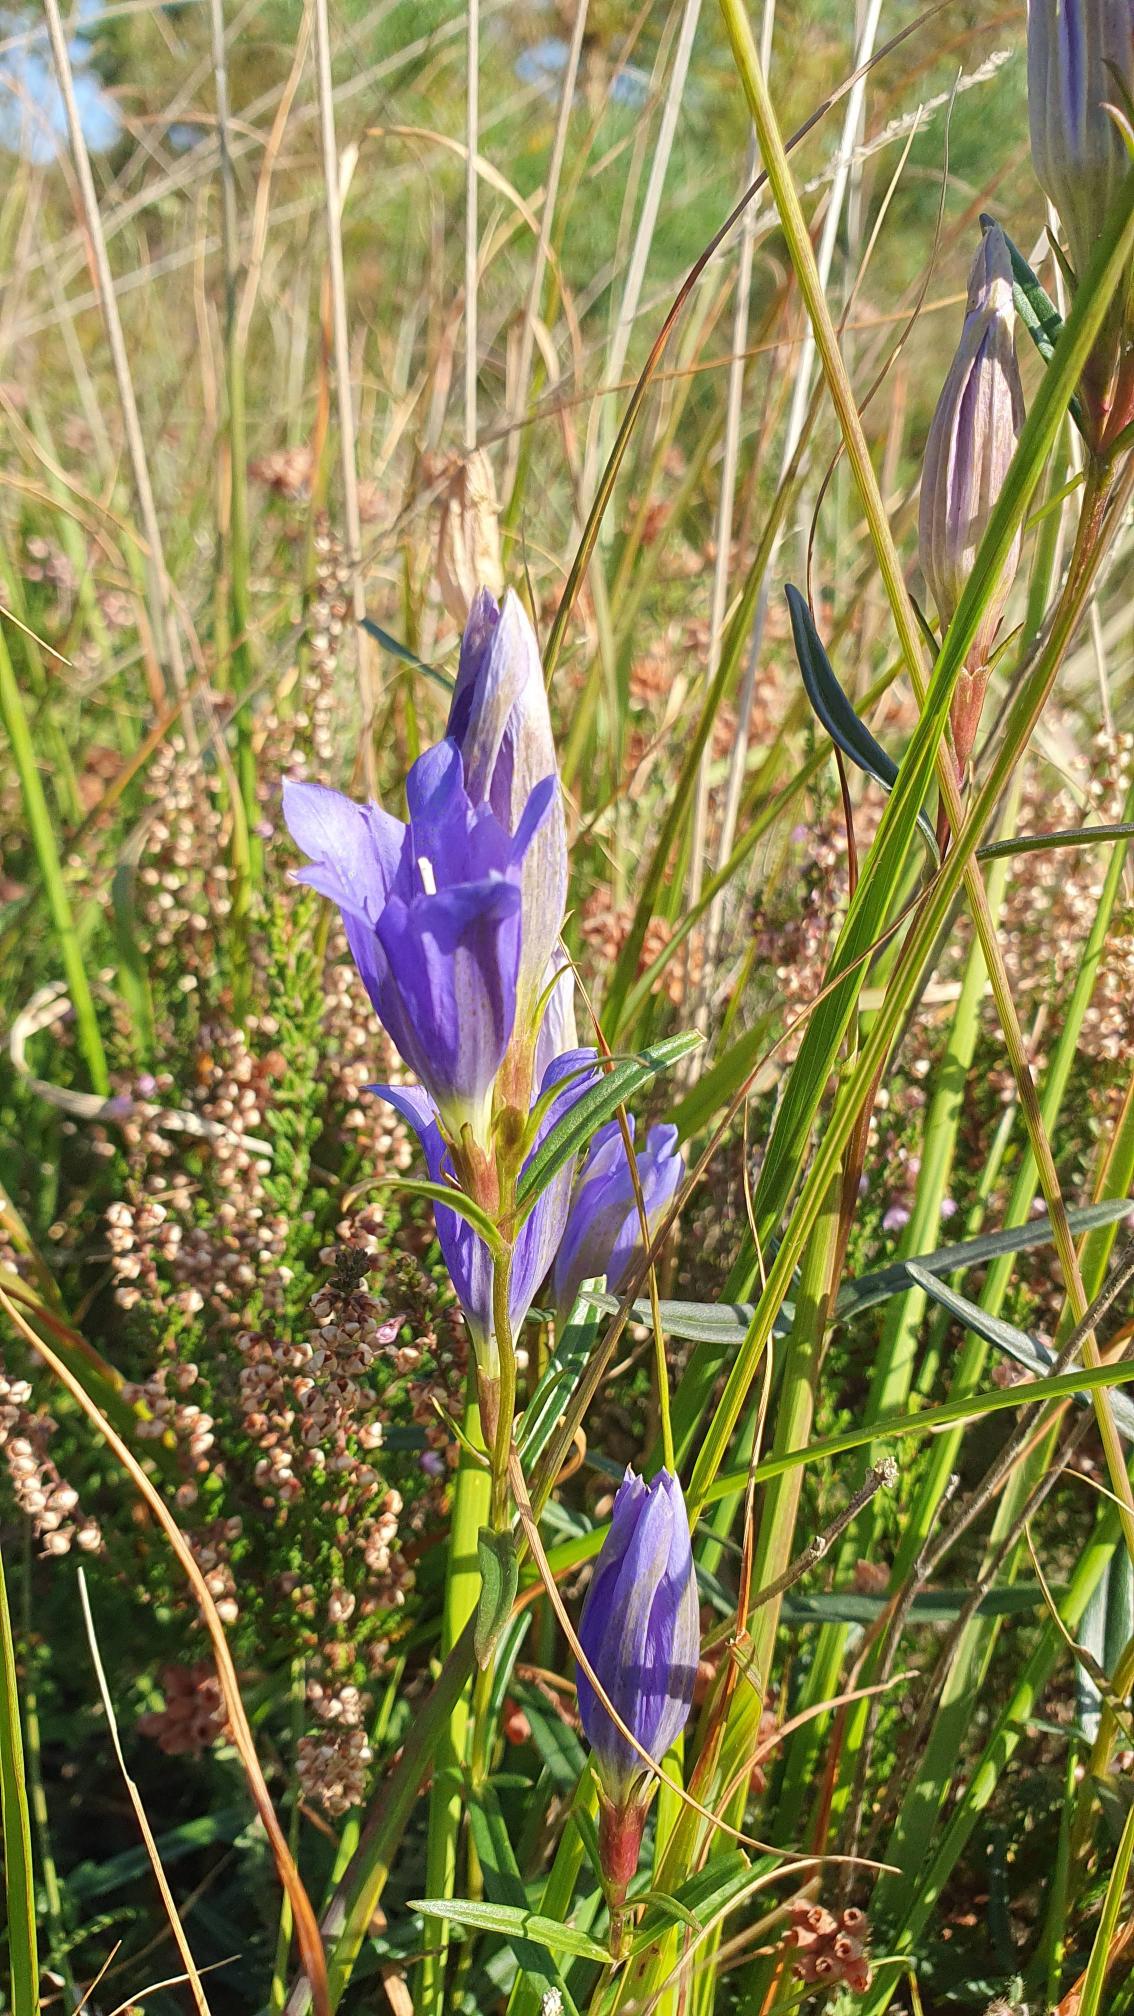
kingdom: Plantae
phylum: Tracheophyta
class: Magnoliopsida
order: Gentianales
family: Gentianaceae
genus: Gentiana
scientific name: Gentiana pneumonanthe
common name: Klokke-ensian
